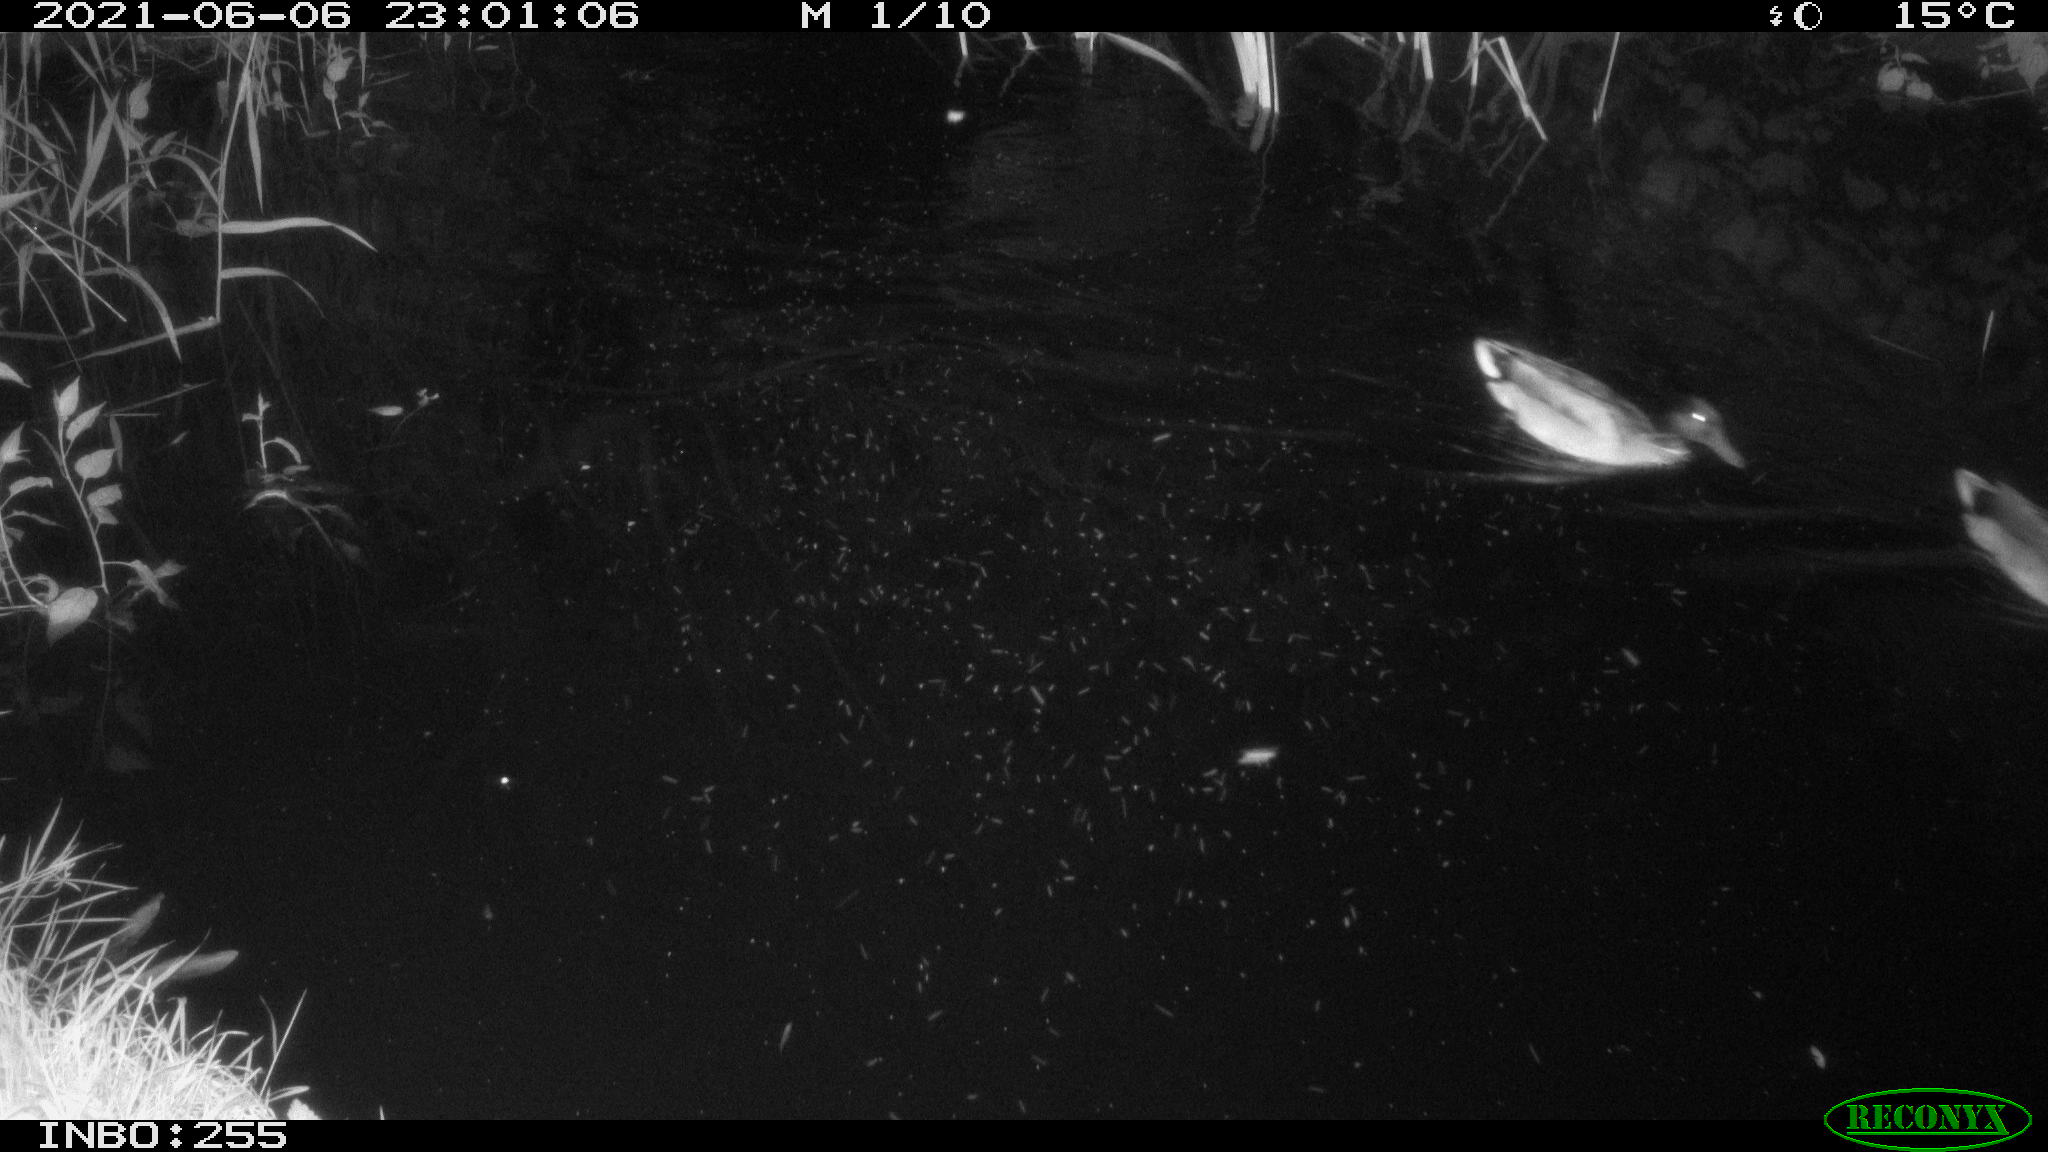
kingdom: Animalia
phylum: Chordata
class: Aves
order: Anseriformes
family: Anatidae
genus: Anas
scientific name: Anas
